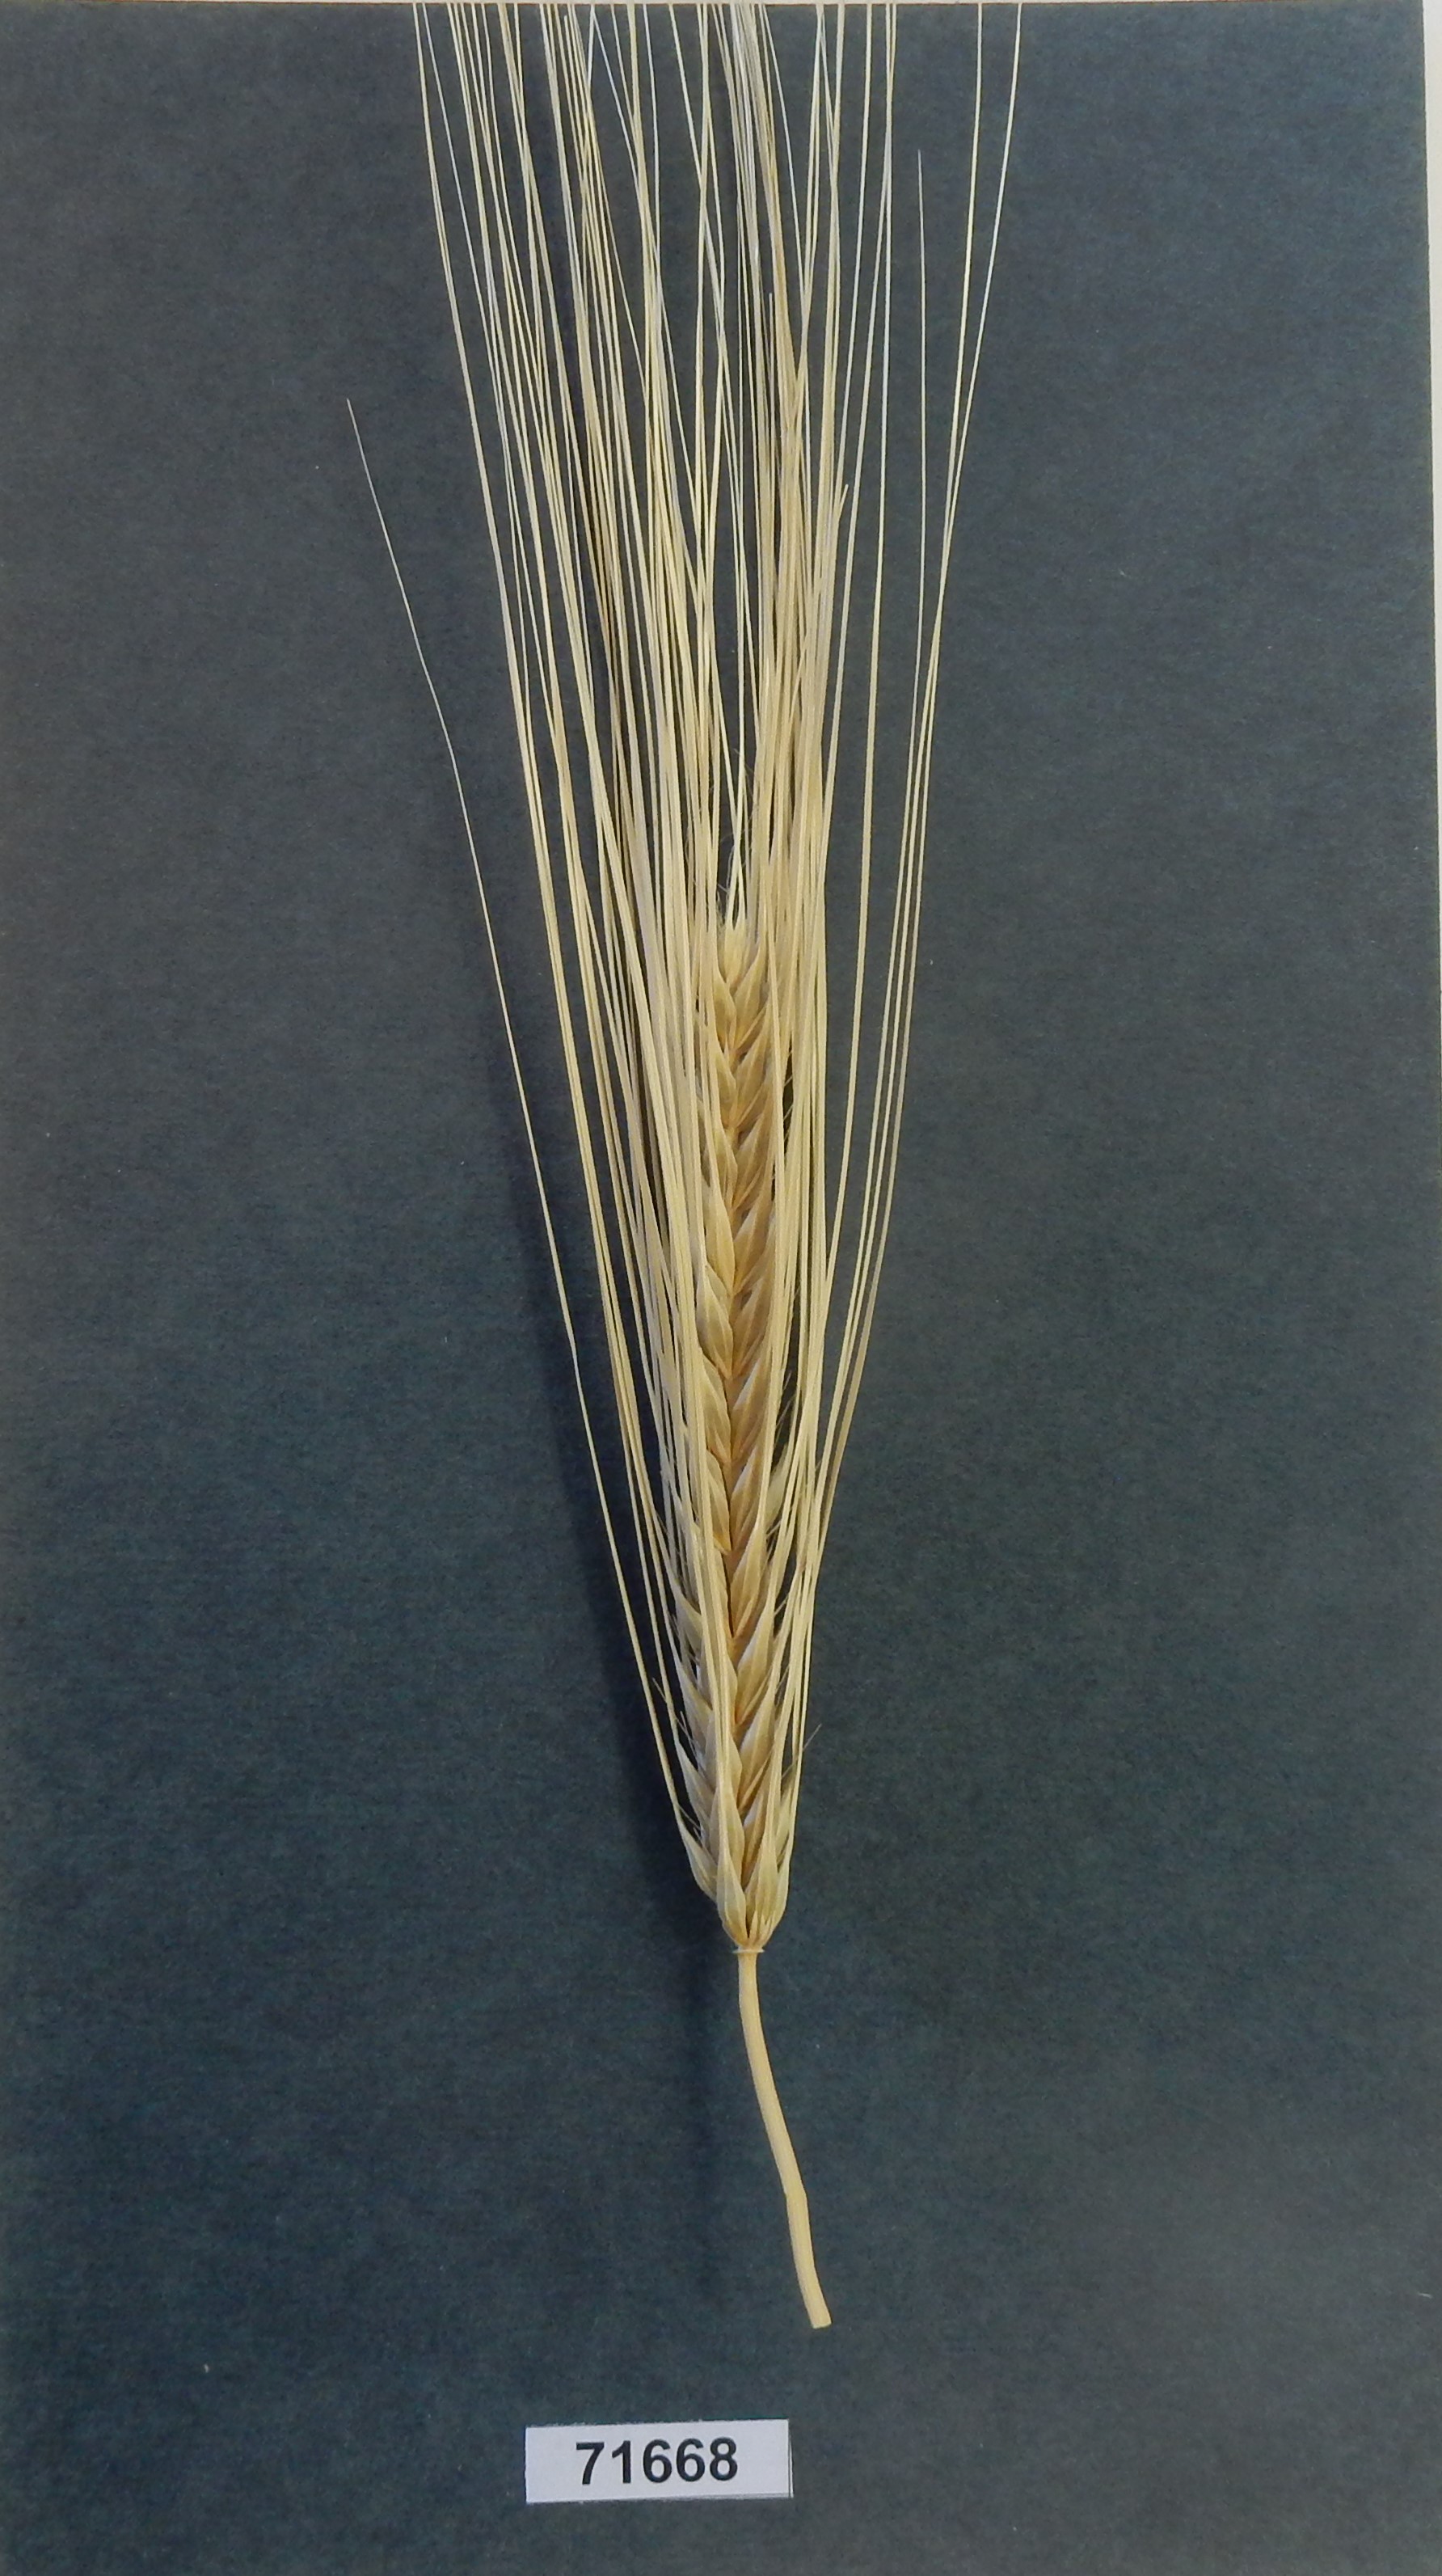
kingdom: Plantae
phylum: Tracheophyta
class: Liliopsida
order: Poales
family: Poaceae
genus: Hordeum
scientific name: Hordeum vulgare
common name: Barley
